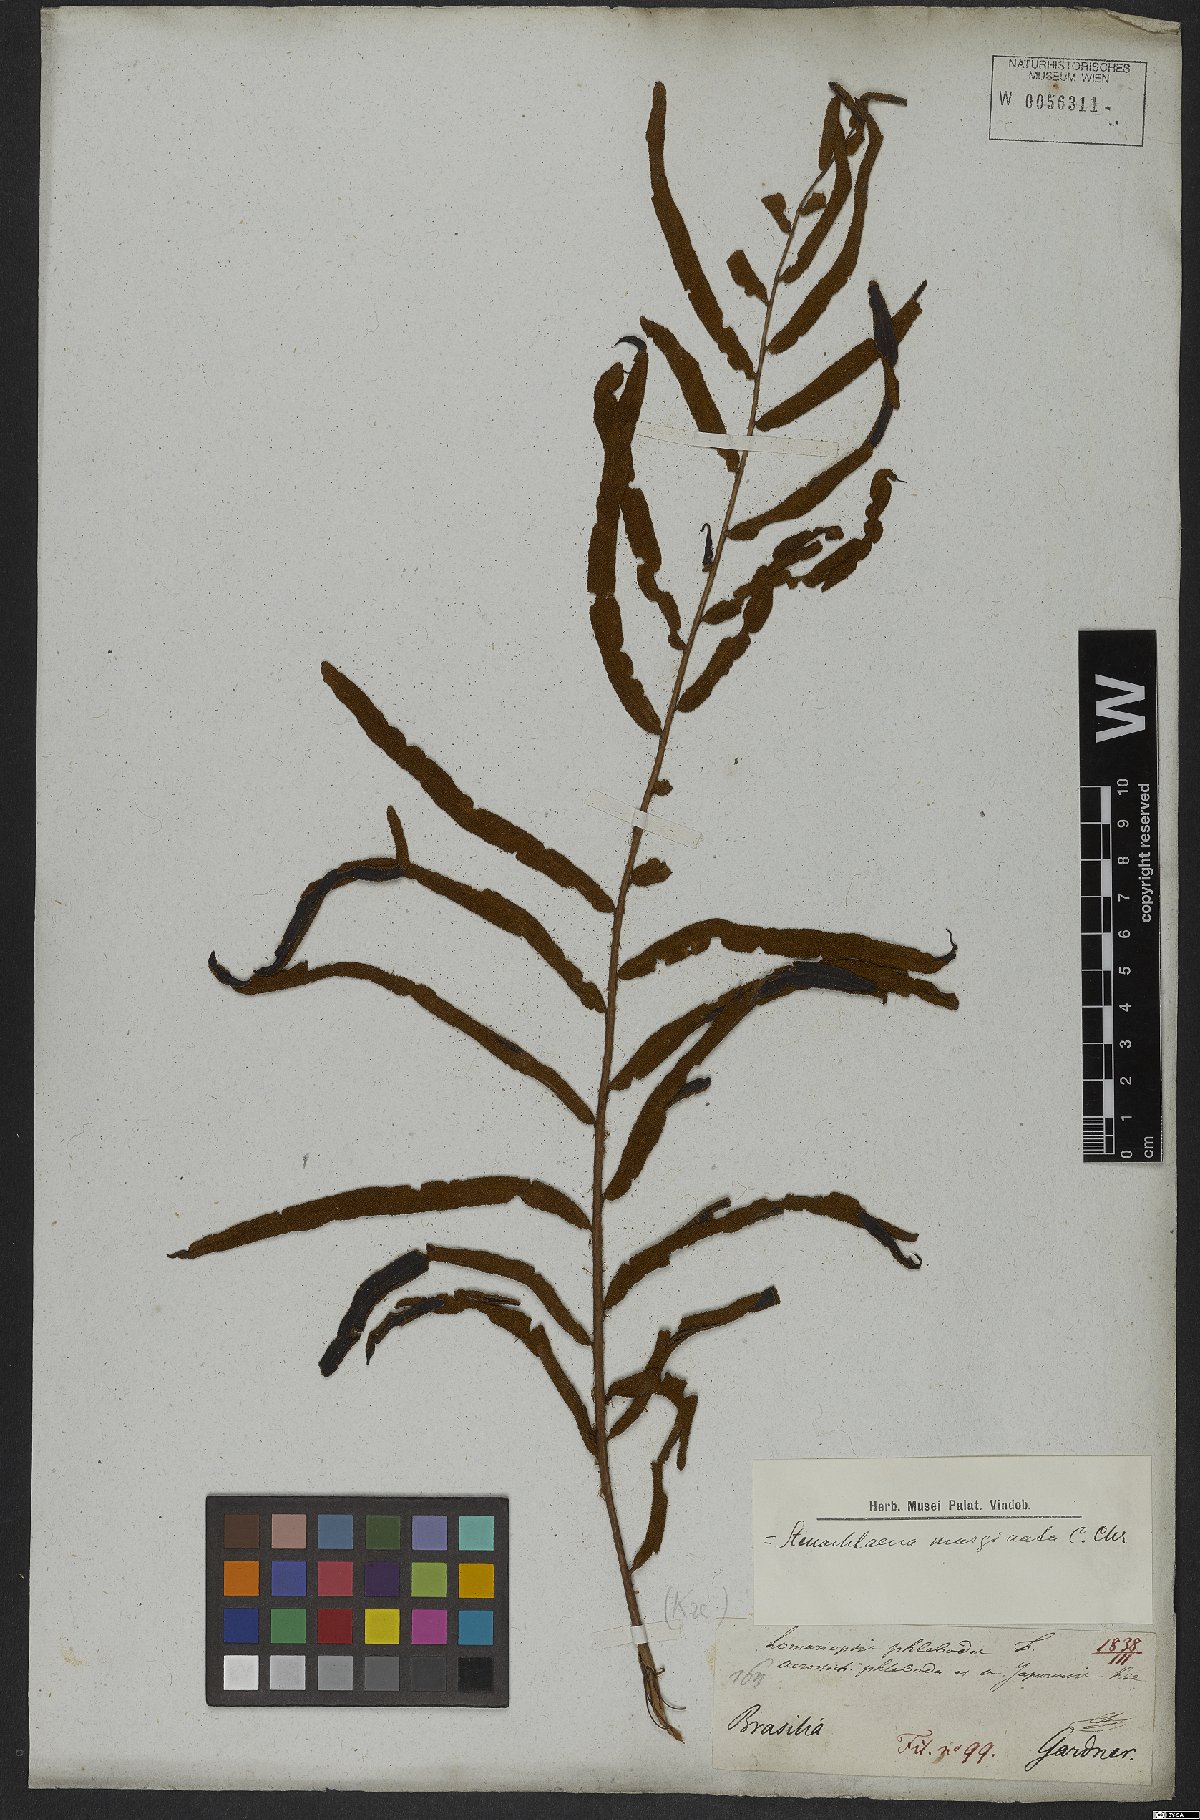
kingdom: Plantae
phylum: Tracheophyta
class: Polypodiopsida
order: Polypodiales
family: Lomariopsidaceae
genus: Lomariopsis
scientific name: Lomariopsis marginata
